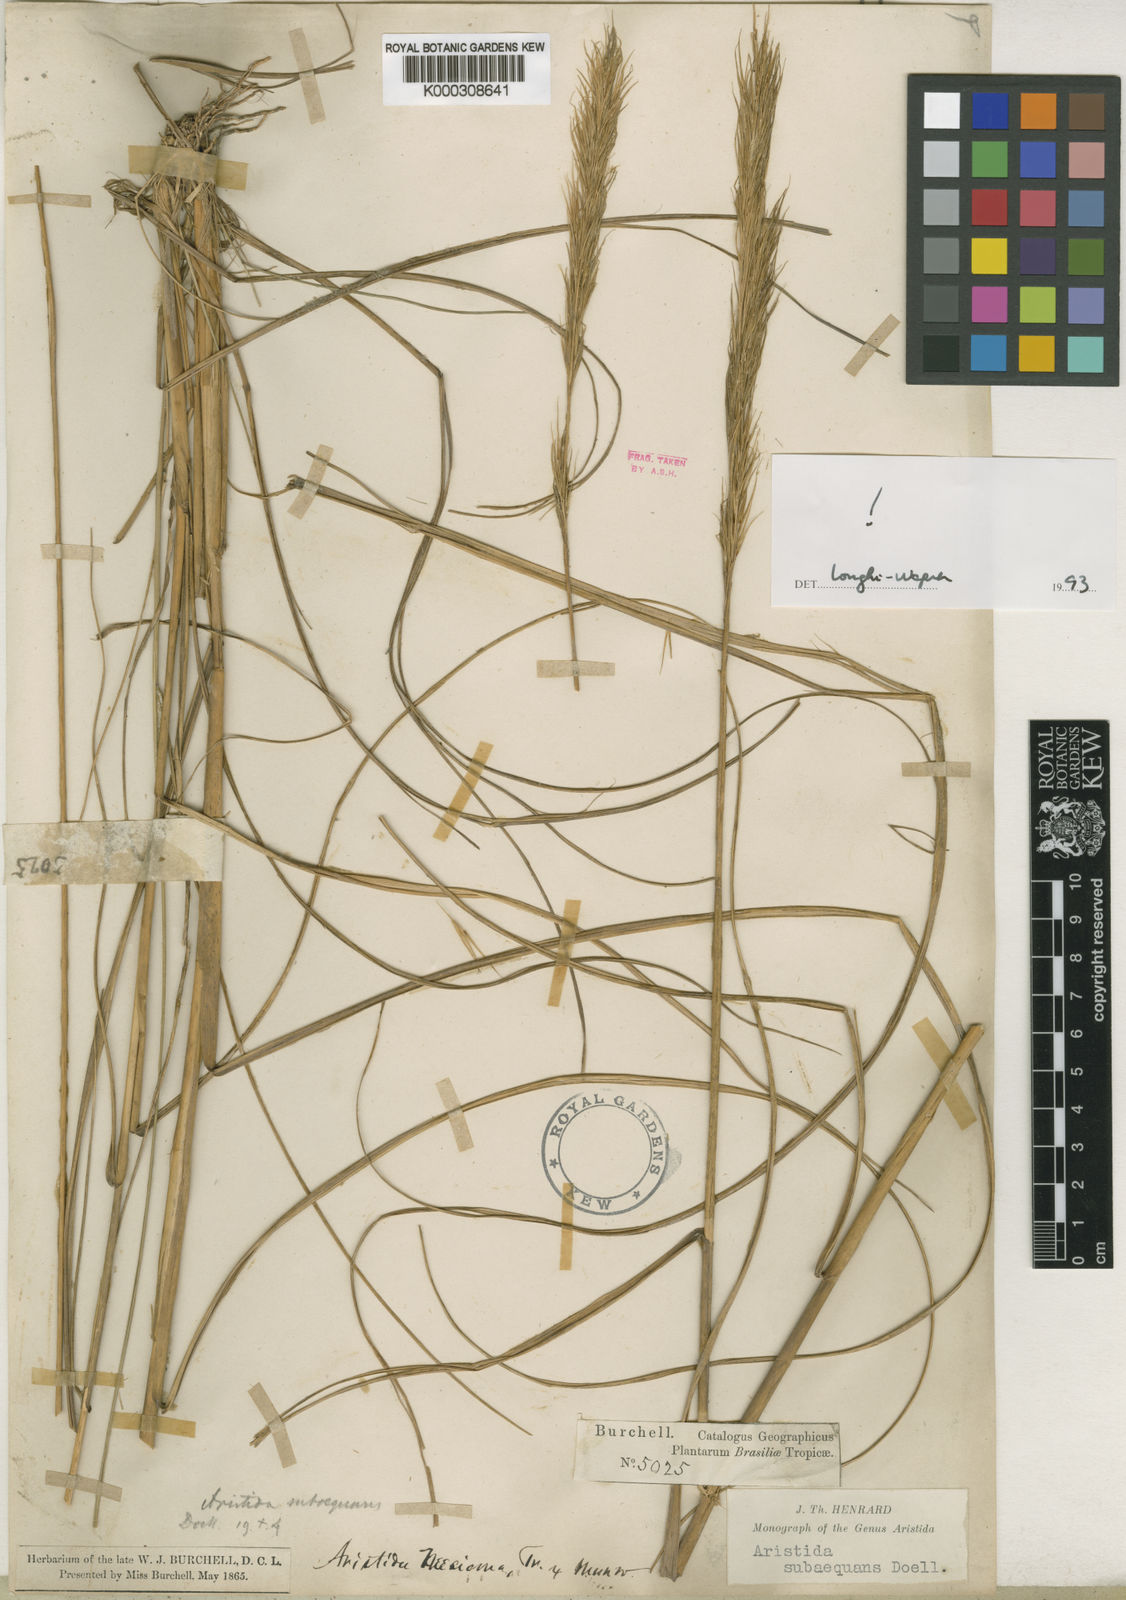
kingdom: Plantae
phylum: Tracheophyta
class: Liliopsida
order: Poales
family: Poaceae
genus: Aristida
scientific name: Aristida
